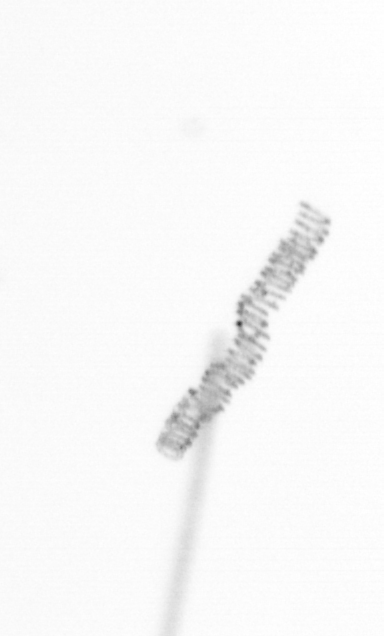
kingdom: Chromista
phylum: Ochrophyta
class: Bacillariophyceae
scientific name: Bacillariophyceae
